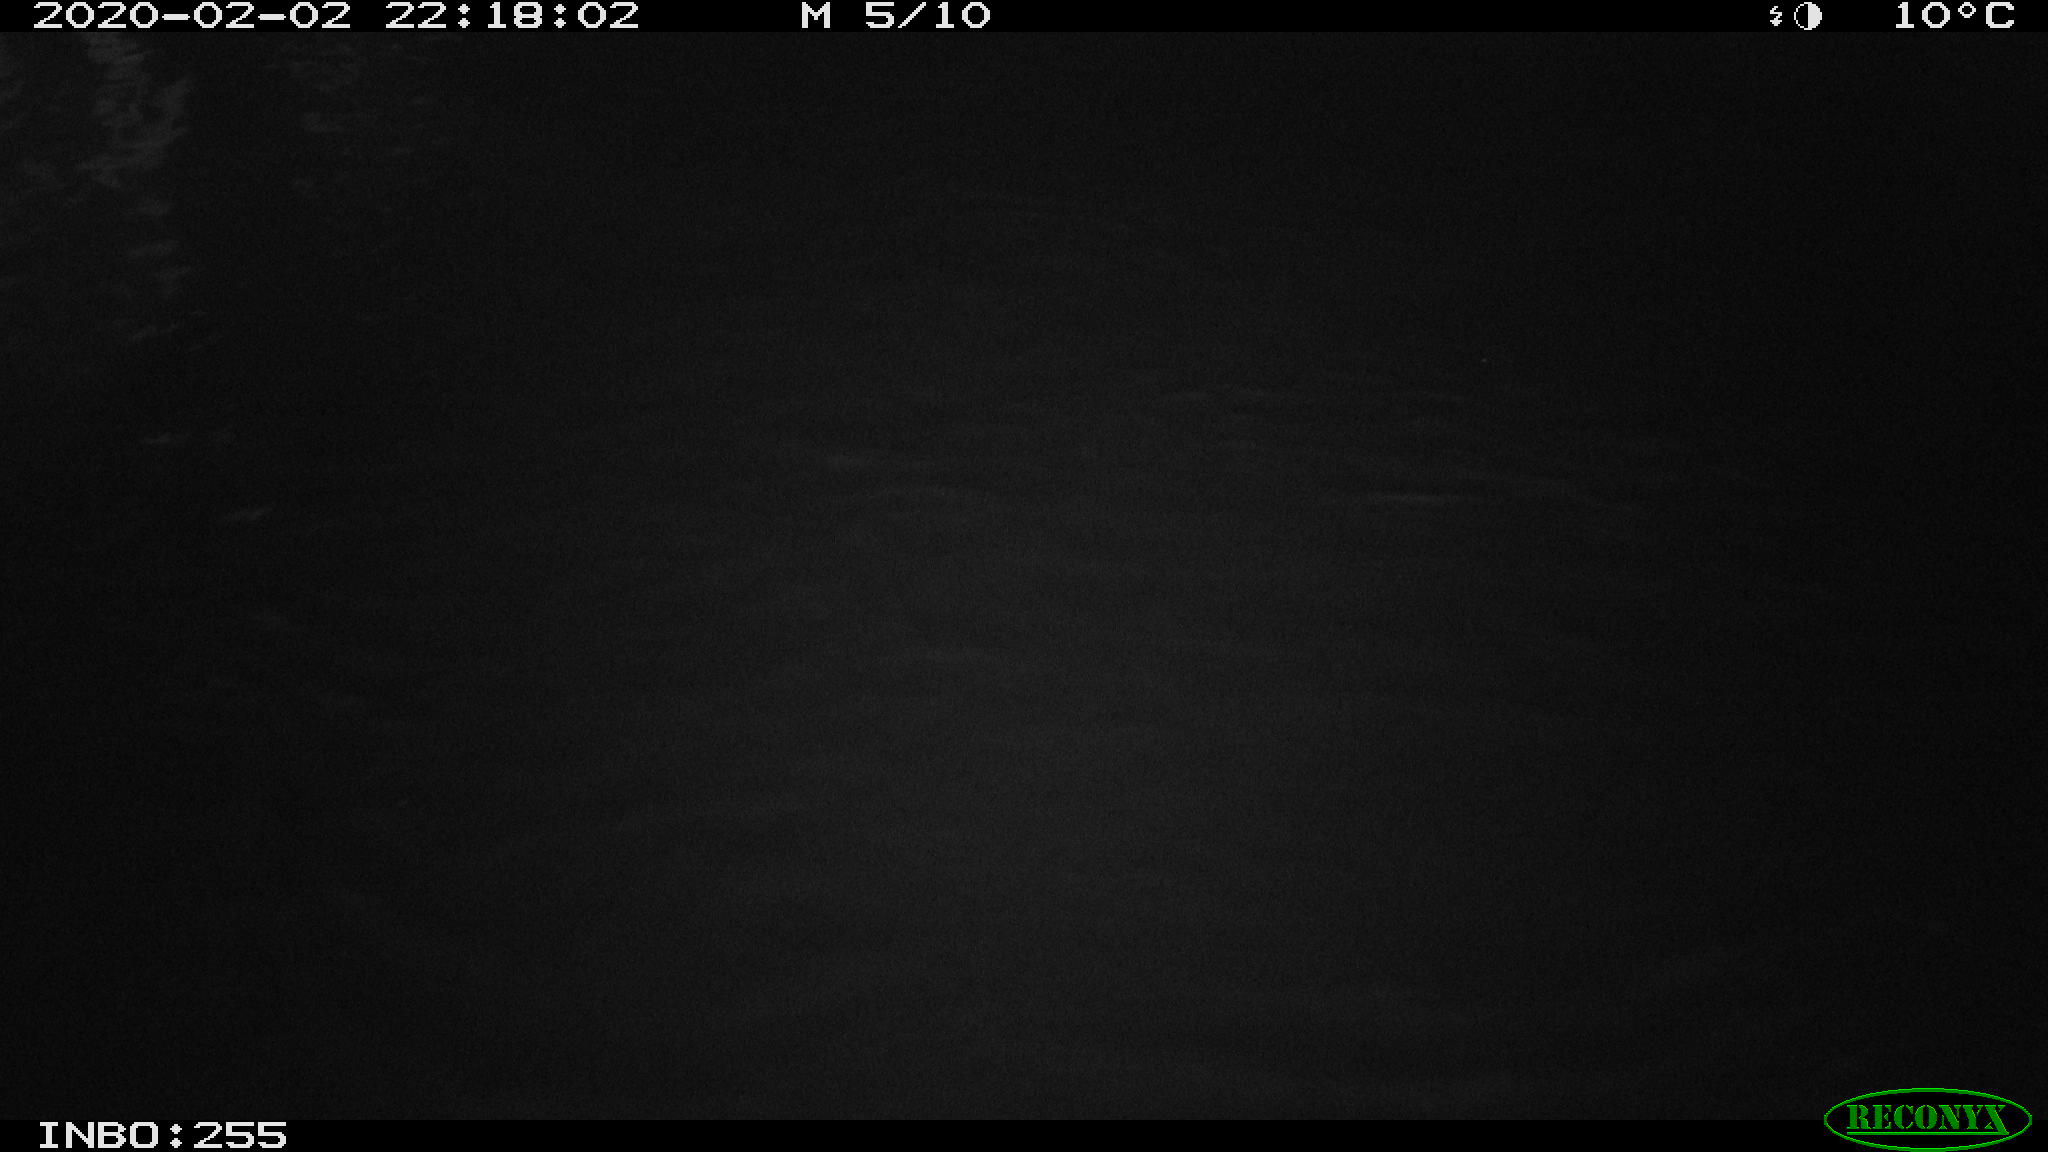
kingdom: Animalia
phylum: Chordata
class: Aves
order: Gruiformes
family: Rallidae
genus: Gallinula
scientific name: Gallinula chloropus
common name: Common moorhen
